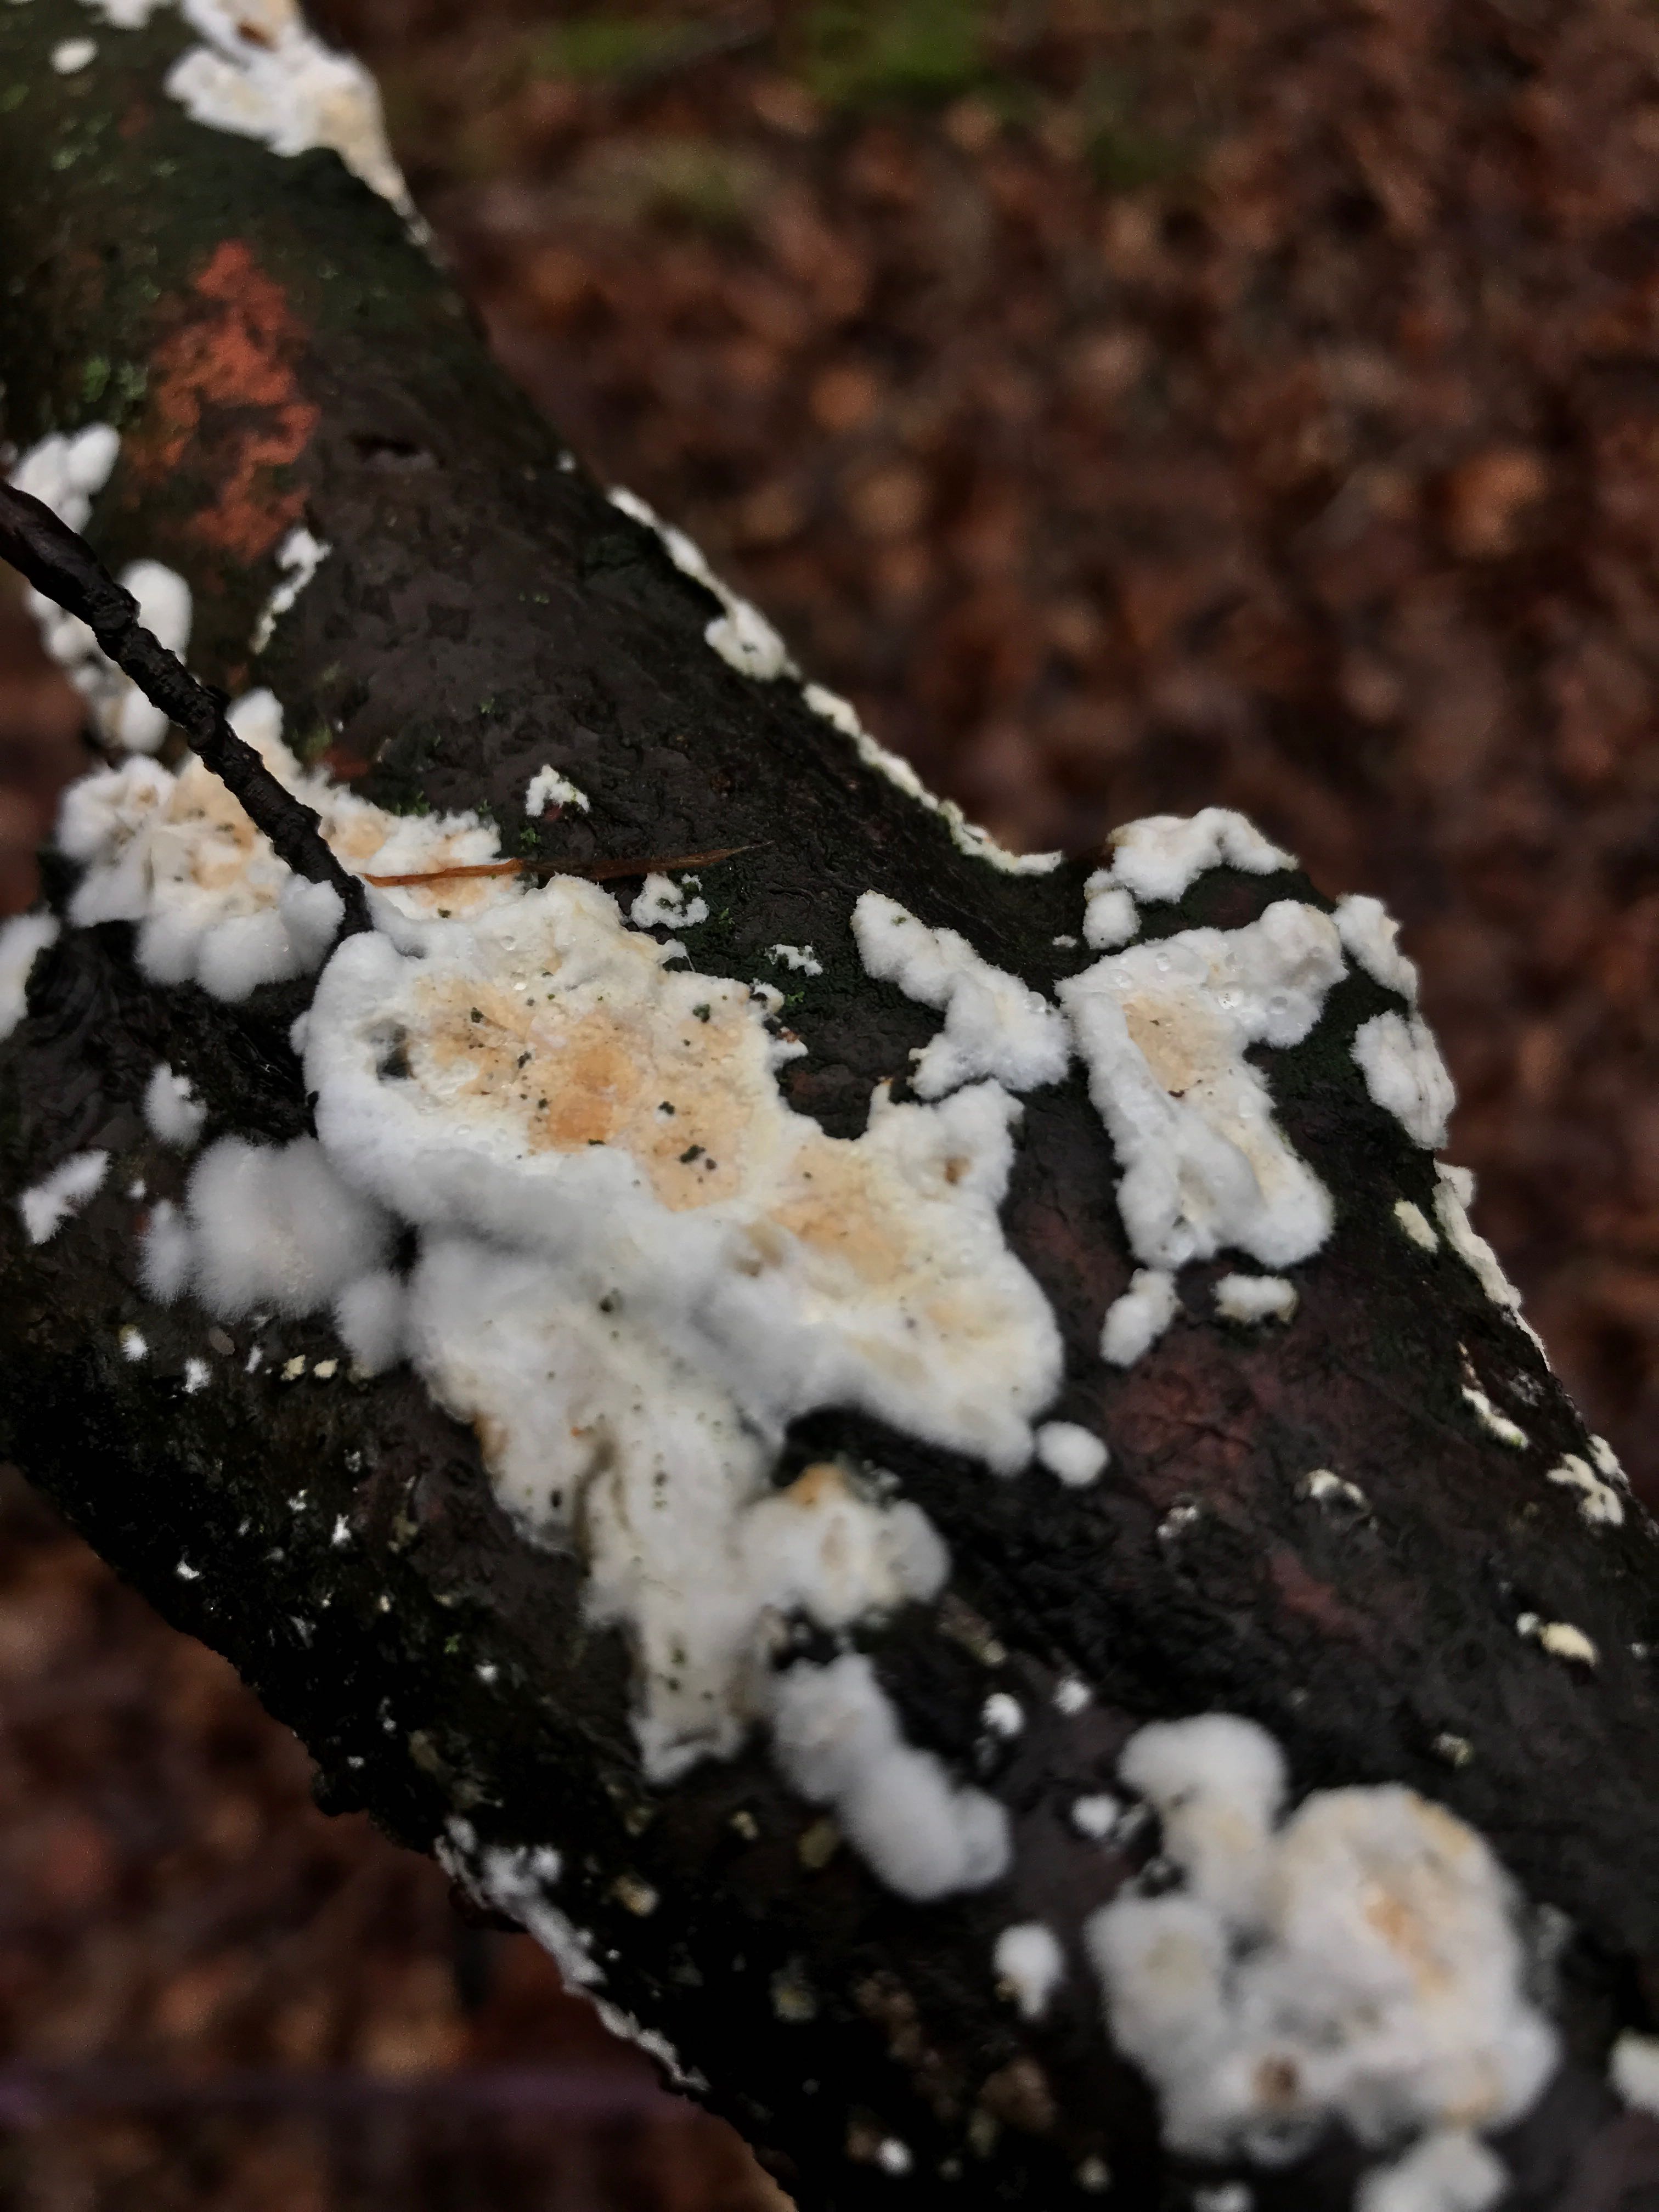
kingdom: Fungi
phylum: Basidiomycota
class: Agaricomycetes
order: Polyporales
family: Irpicaceae
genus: Byssomerulius
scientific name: Byssomerulius corium
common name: læder-åresvamp
